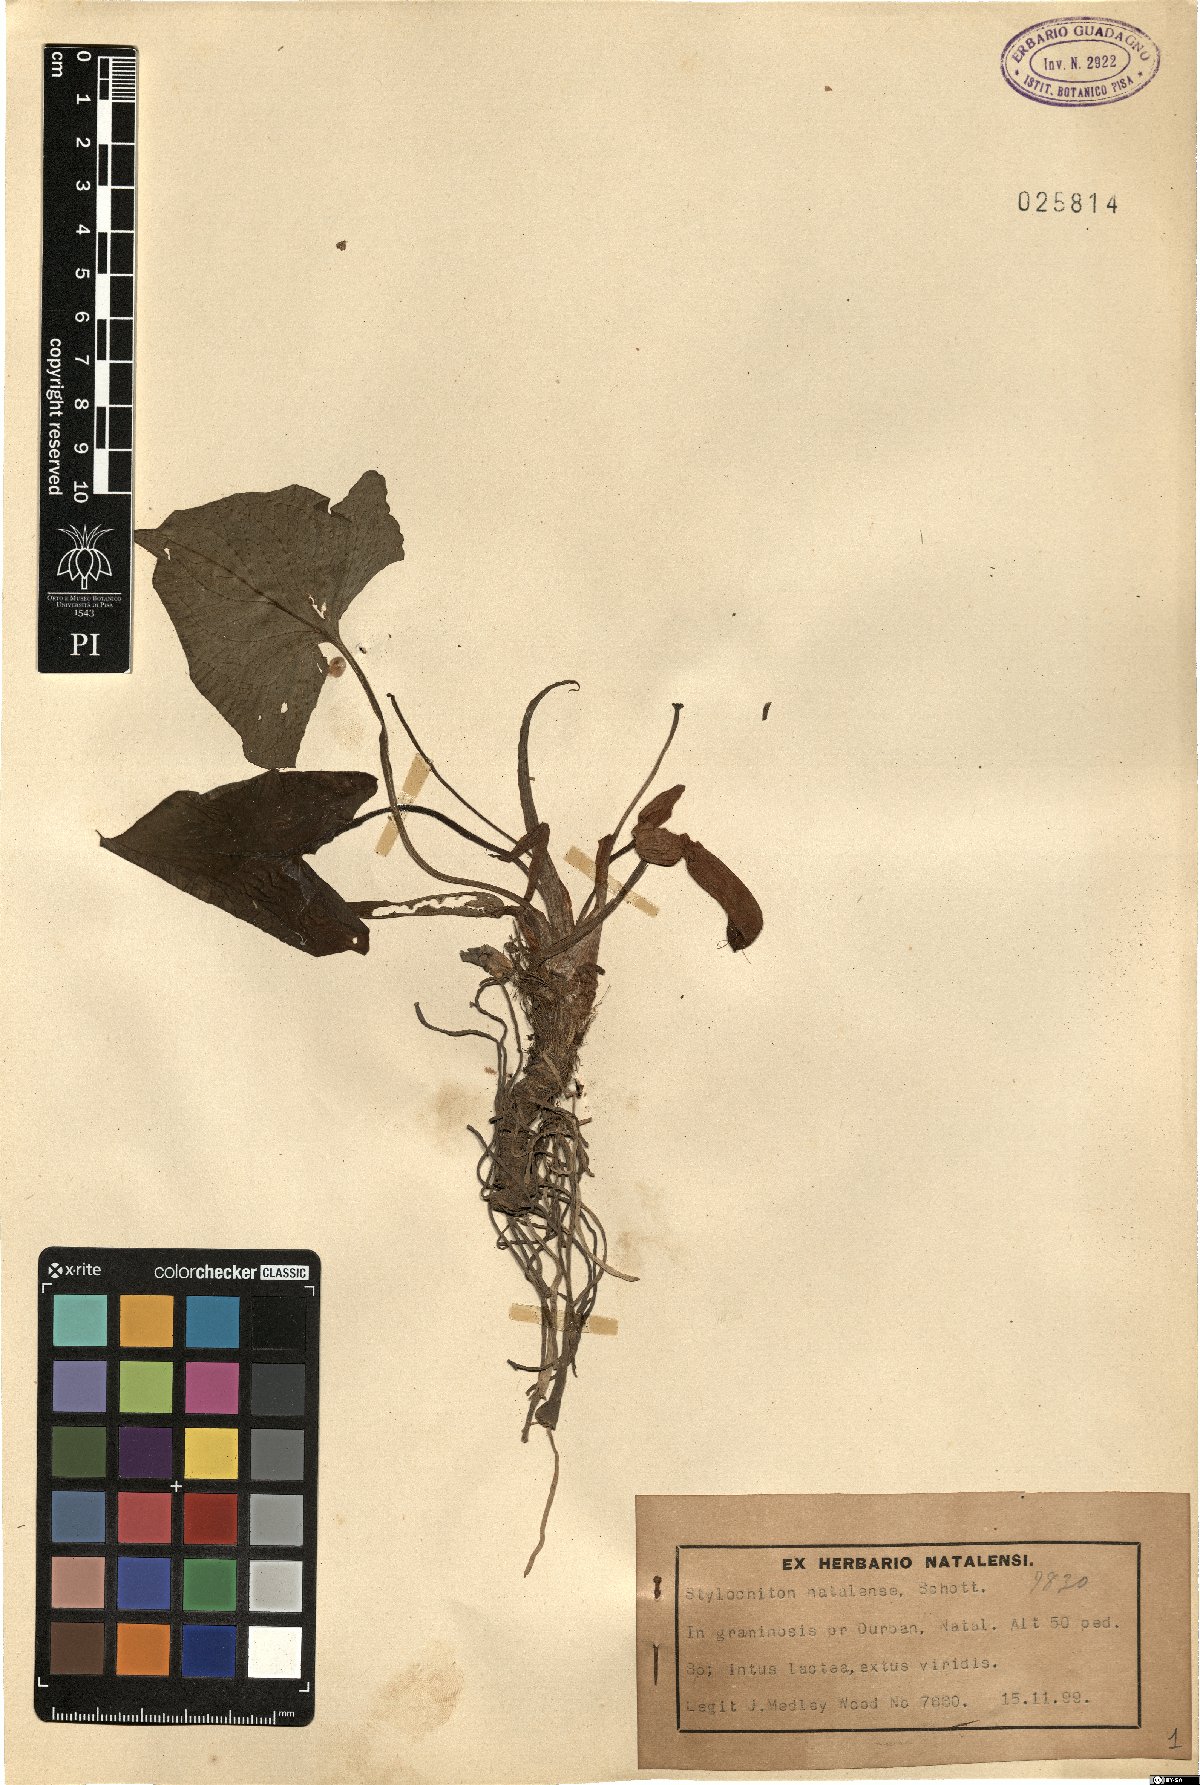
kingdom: Plantae
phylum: Tracheophyta
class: Liliopsida
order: Alismatales
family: Araceae
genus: Stylochaeton
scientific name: Stylochaeton natalensis
